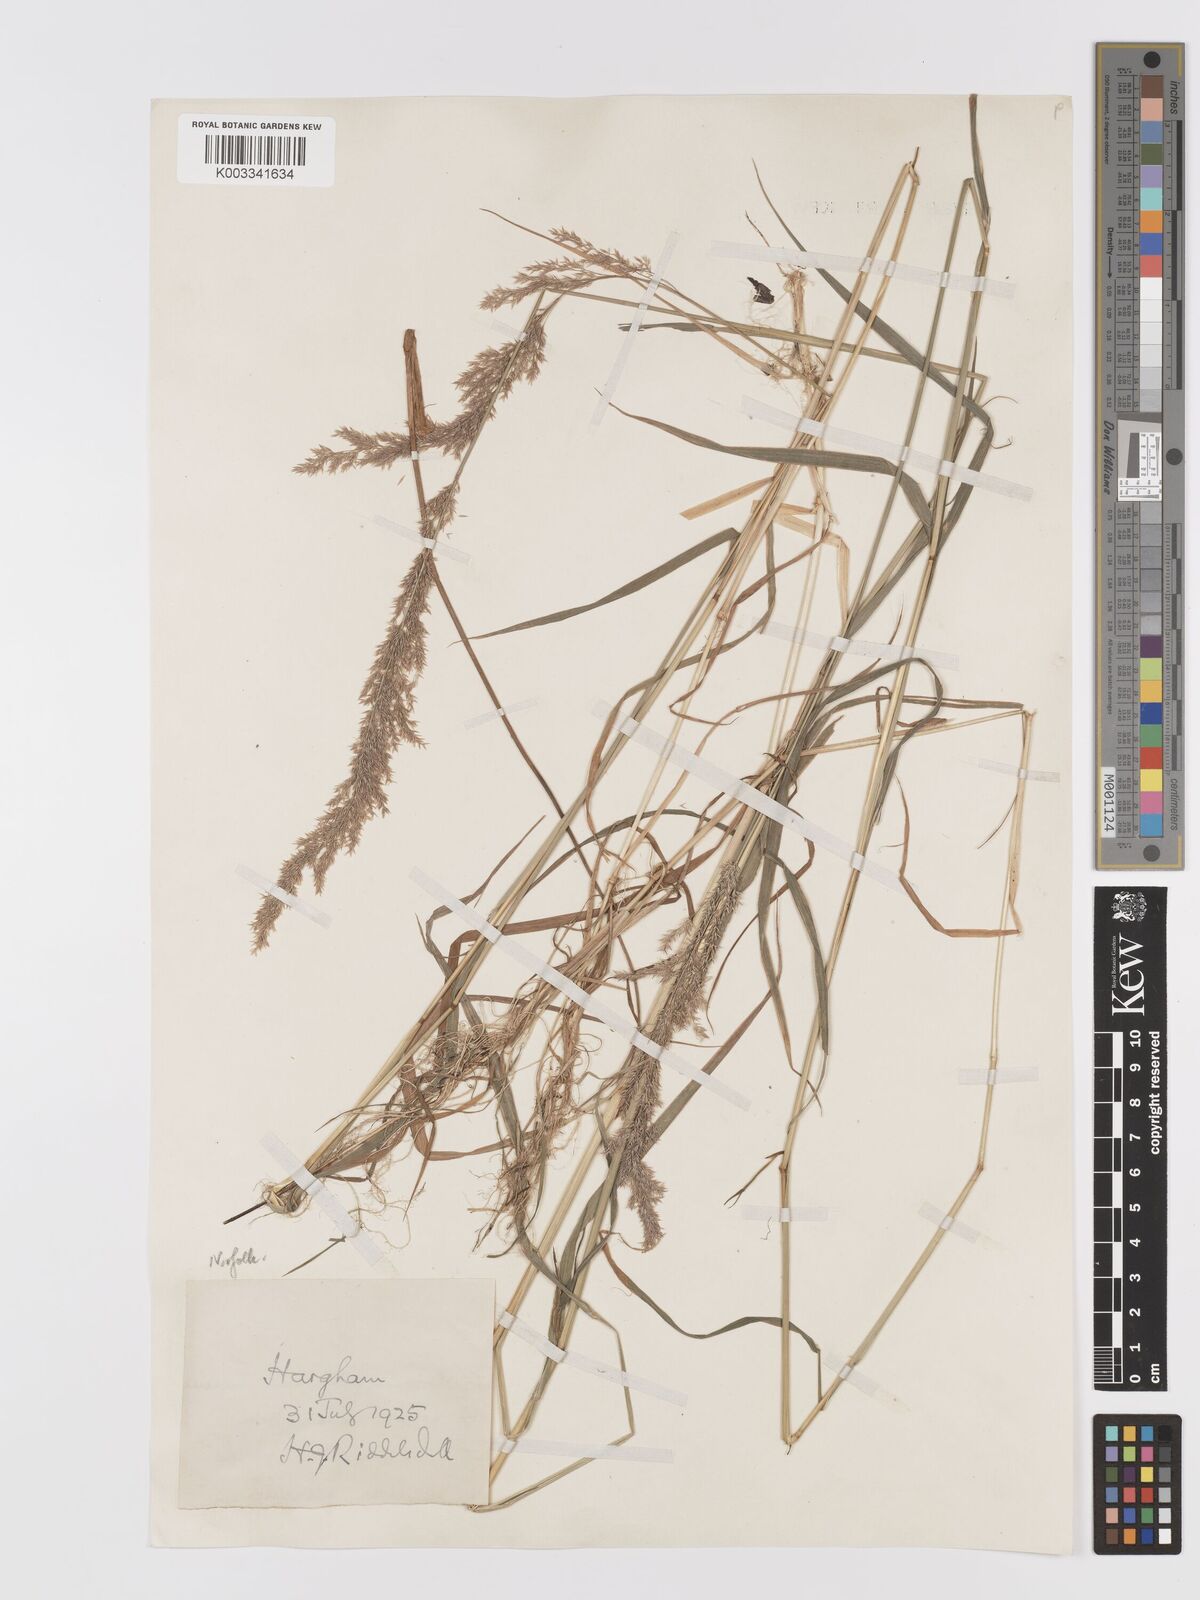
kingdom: Plantae
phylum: Tracheophyta
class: Liliopsida
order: Poales
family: Poaceae
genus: Agrostis
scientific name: Agrostis stolonifera
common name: Creeping bentgrass
